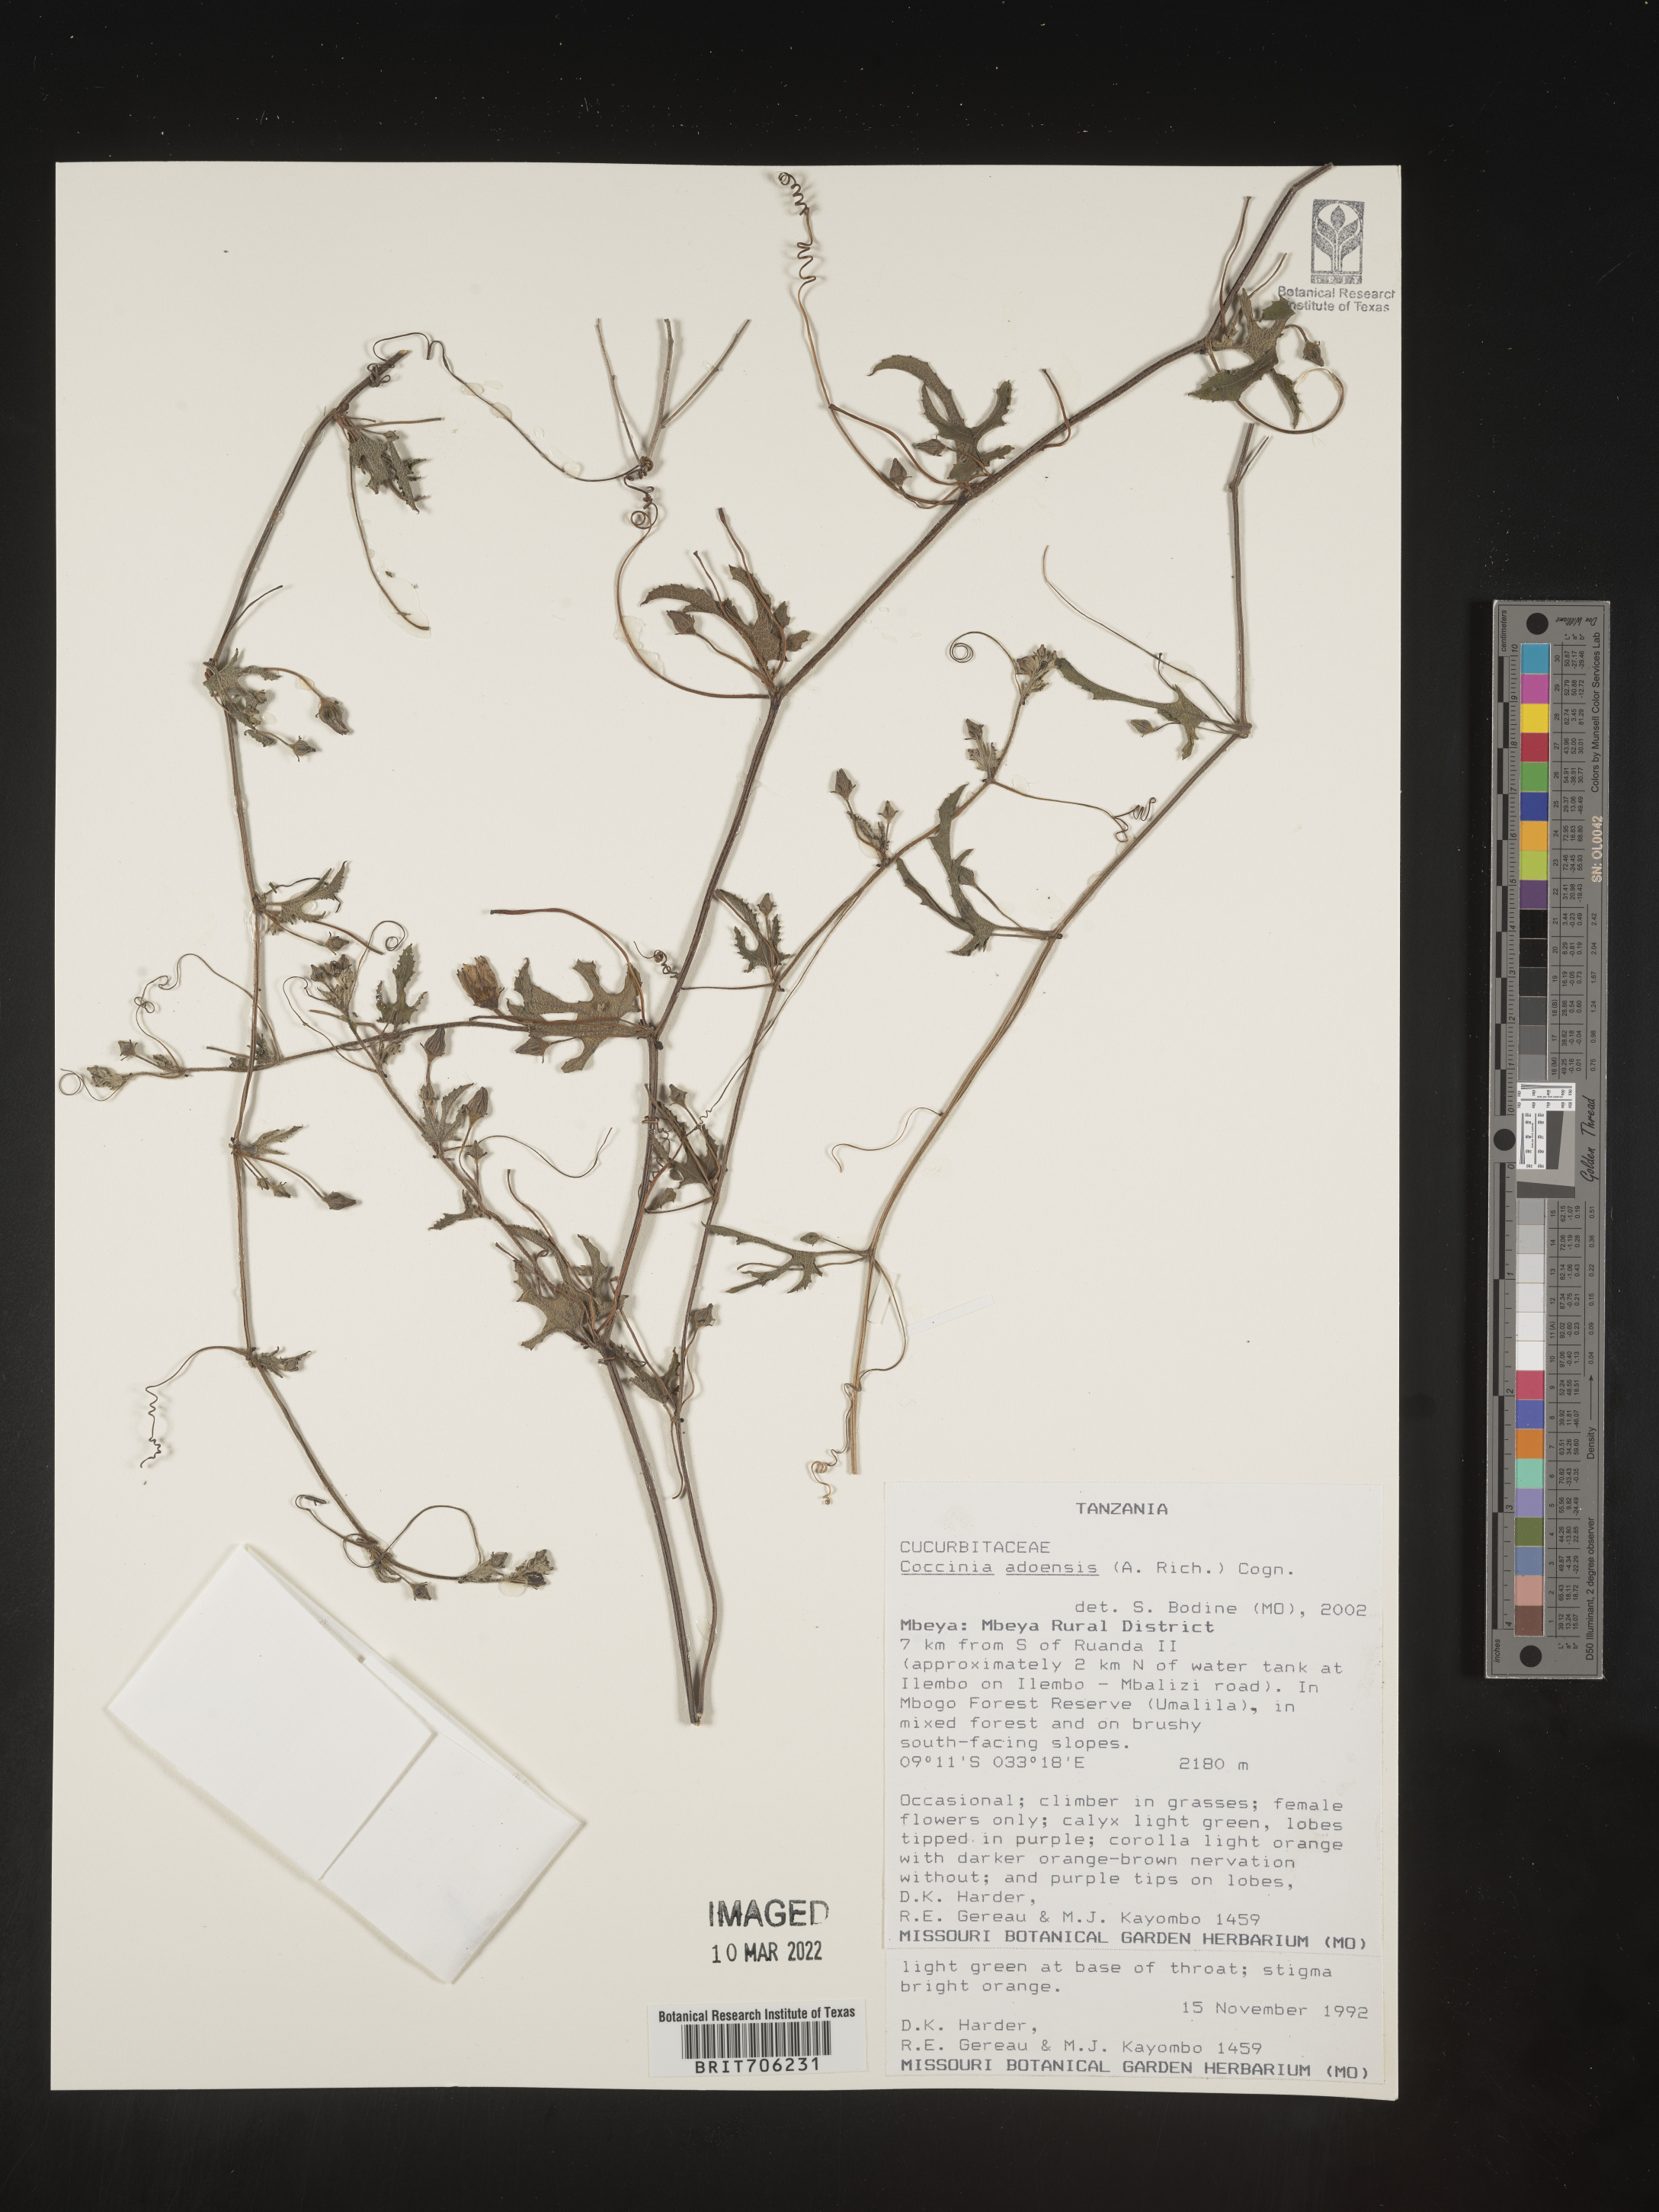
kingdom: Plantae
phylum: Tracheophyta
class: Magnoliopsida
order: Cucurbitales
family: Cucurbitaceae
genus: Coccinia
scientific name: Coccinia
